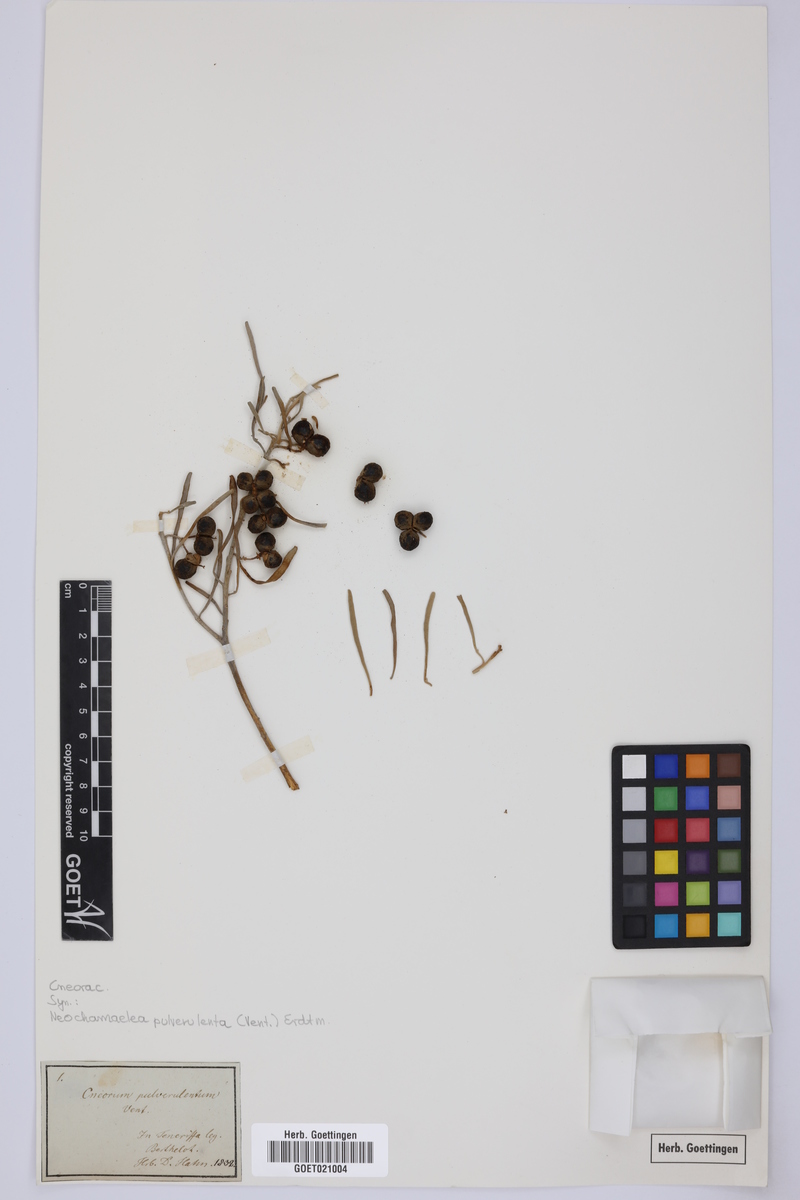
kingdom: Plantae
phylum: Tracheophyta
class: Magnoliopsida
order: Sapindales
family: Rutaceae
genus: Cneorum
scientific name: Cneorum pulverulentum
